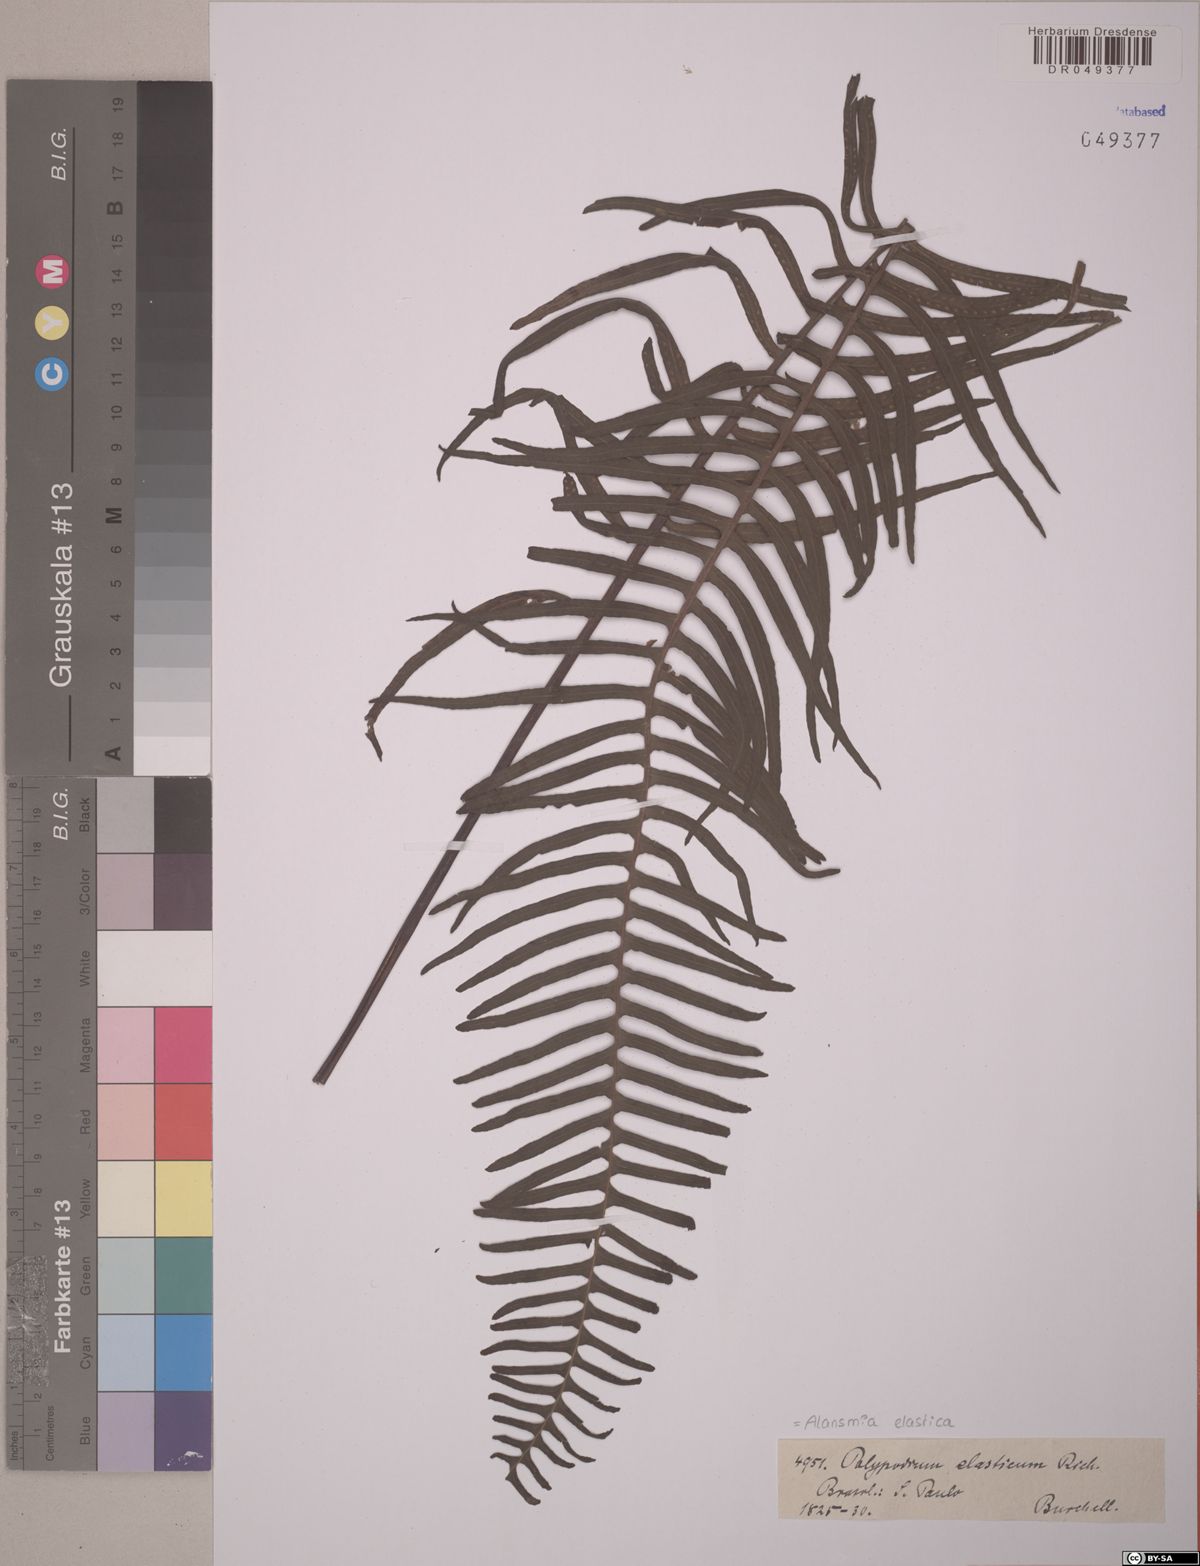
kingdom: Plantae
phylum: Tracheophyta
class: Polypodiopsida
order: Polypodiales
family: Polypodiaceae
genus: Alansmia
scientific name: Alansmia elastica
